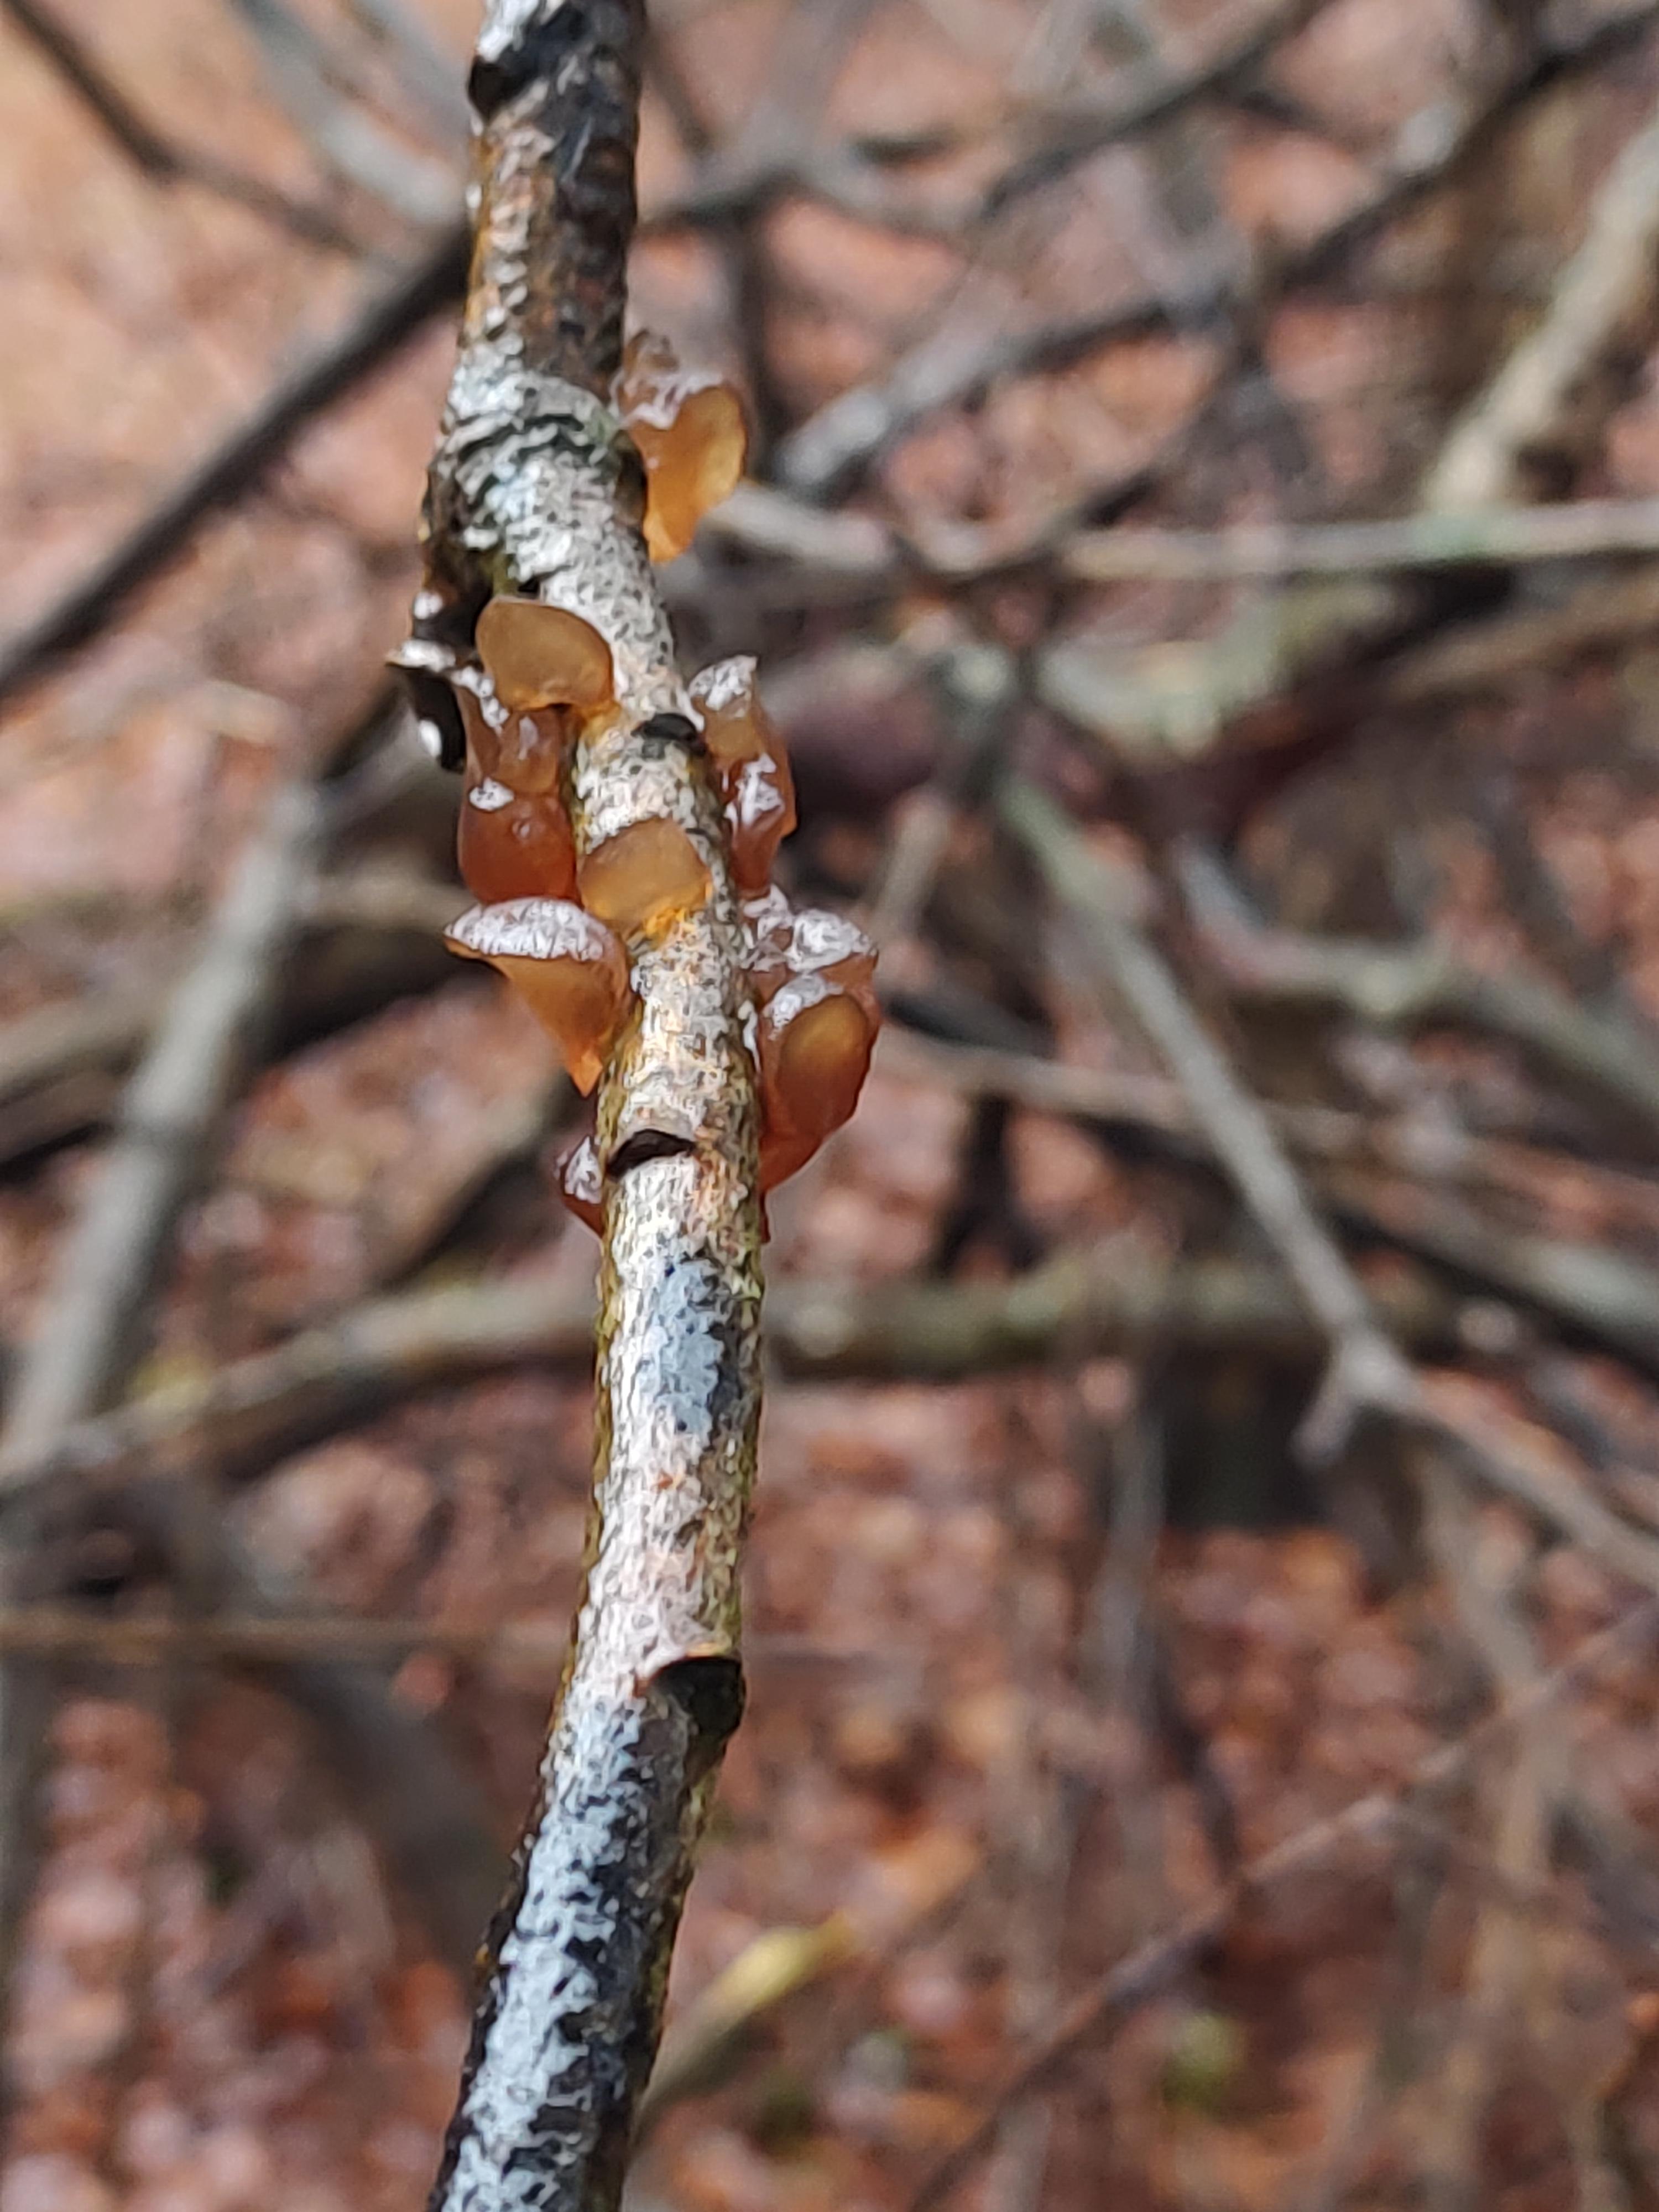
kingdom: Fungi
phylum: Basidiomycota
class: Agaricomycetes
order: Auriculariales
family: Auriculariaceae
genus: Exidia
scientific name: Exidia recisa
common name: pile-bævretop
